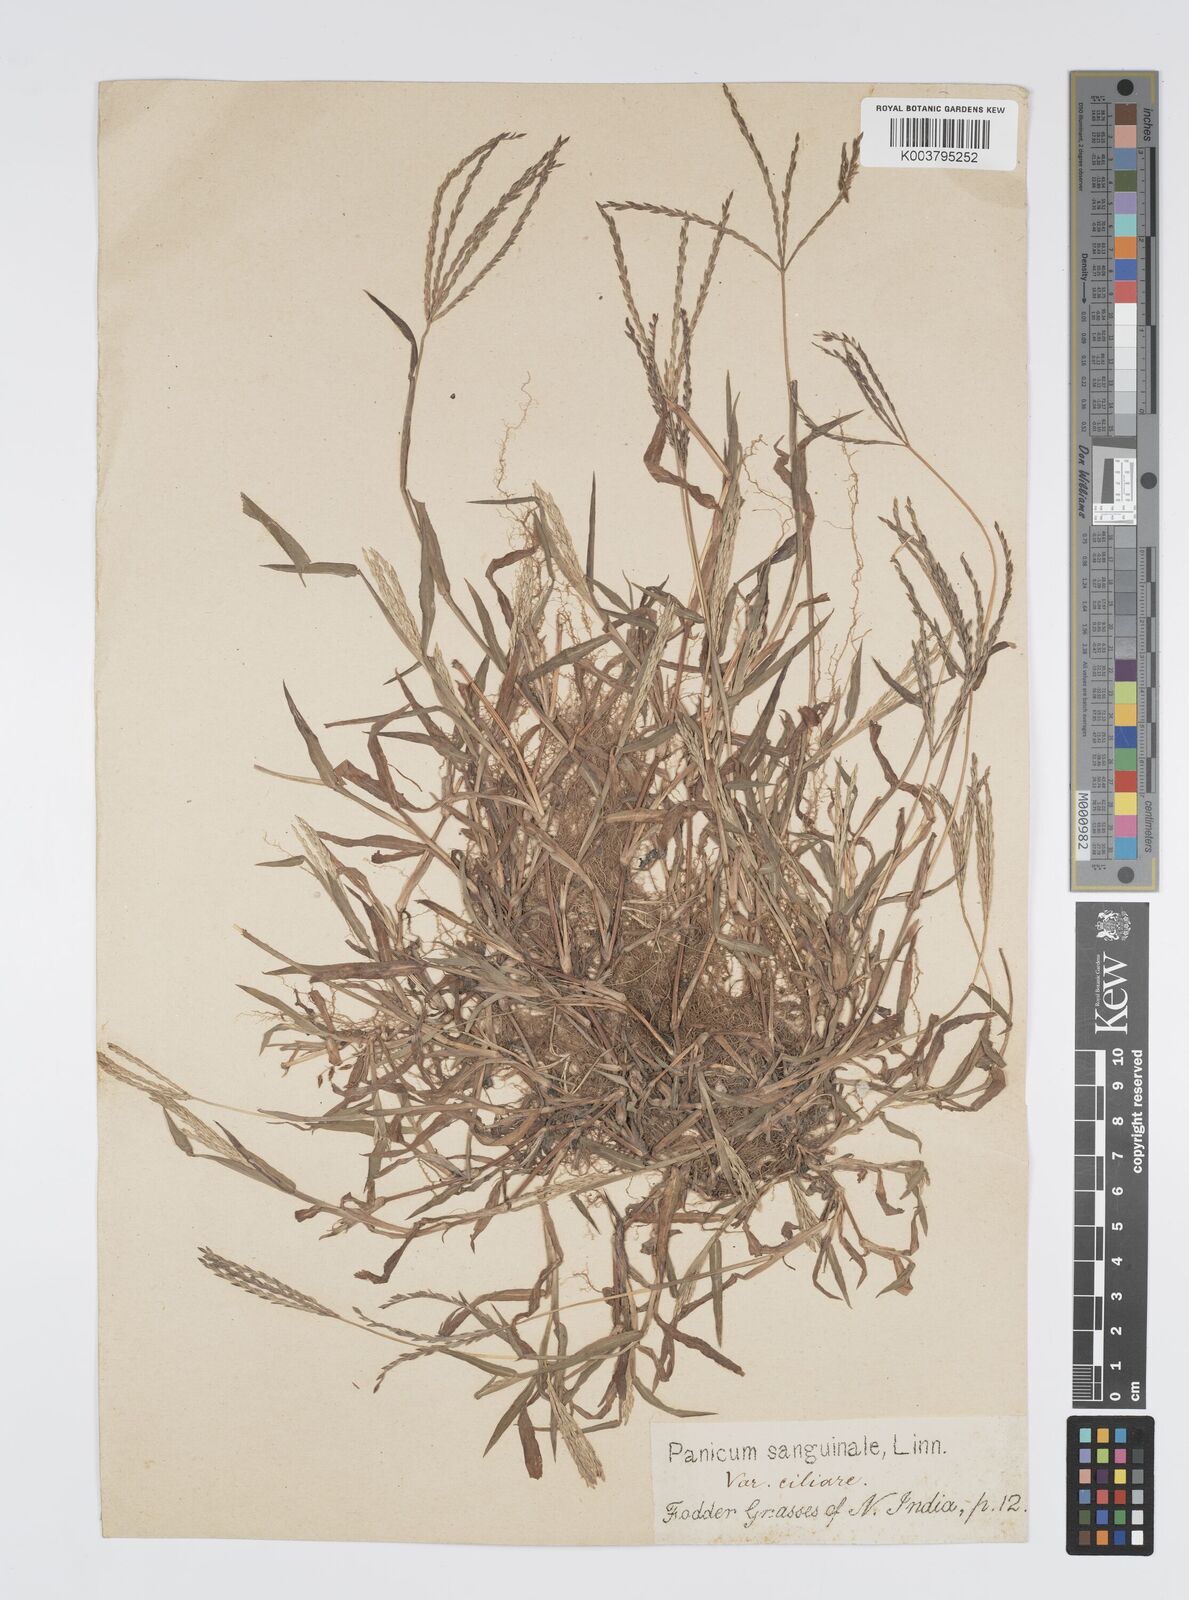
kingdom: Plantae
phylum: Tracheophyta
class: Liliopsida
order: Poales
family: Poaceae
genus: Digitaria
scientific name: Digitaria ciliaris
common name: Tropical finger-grass
